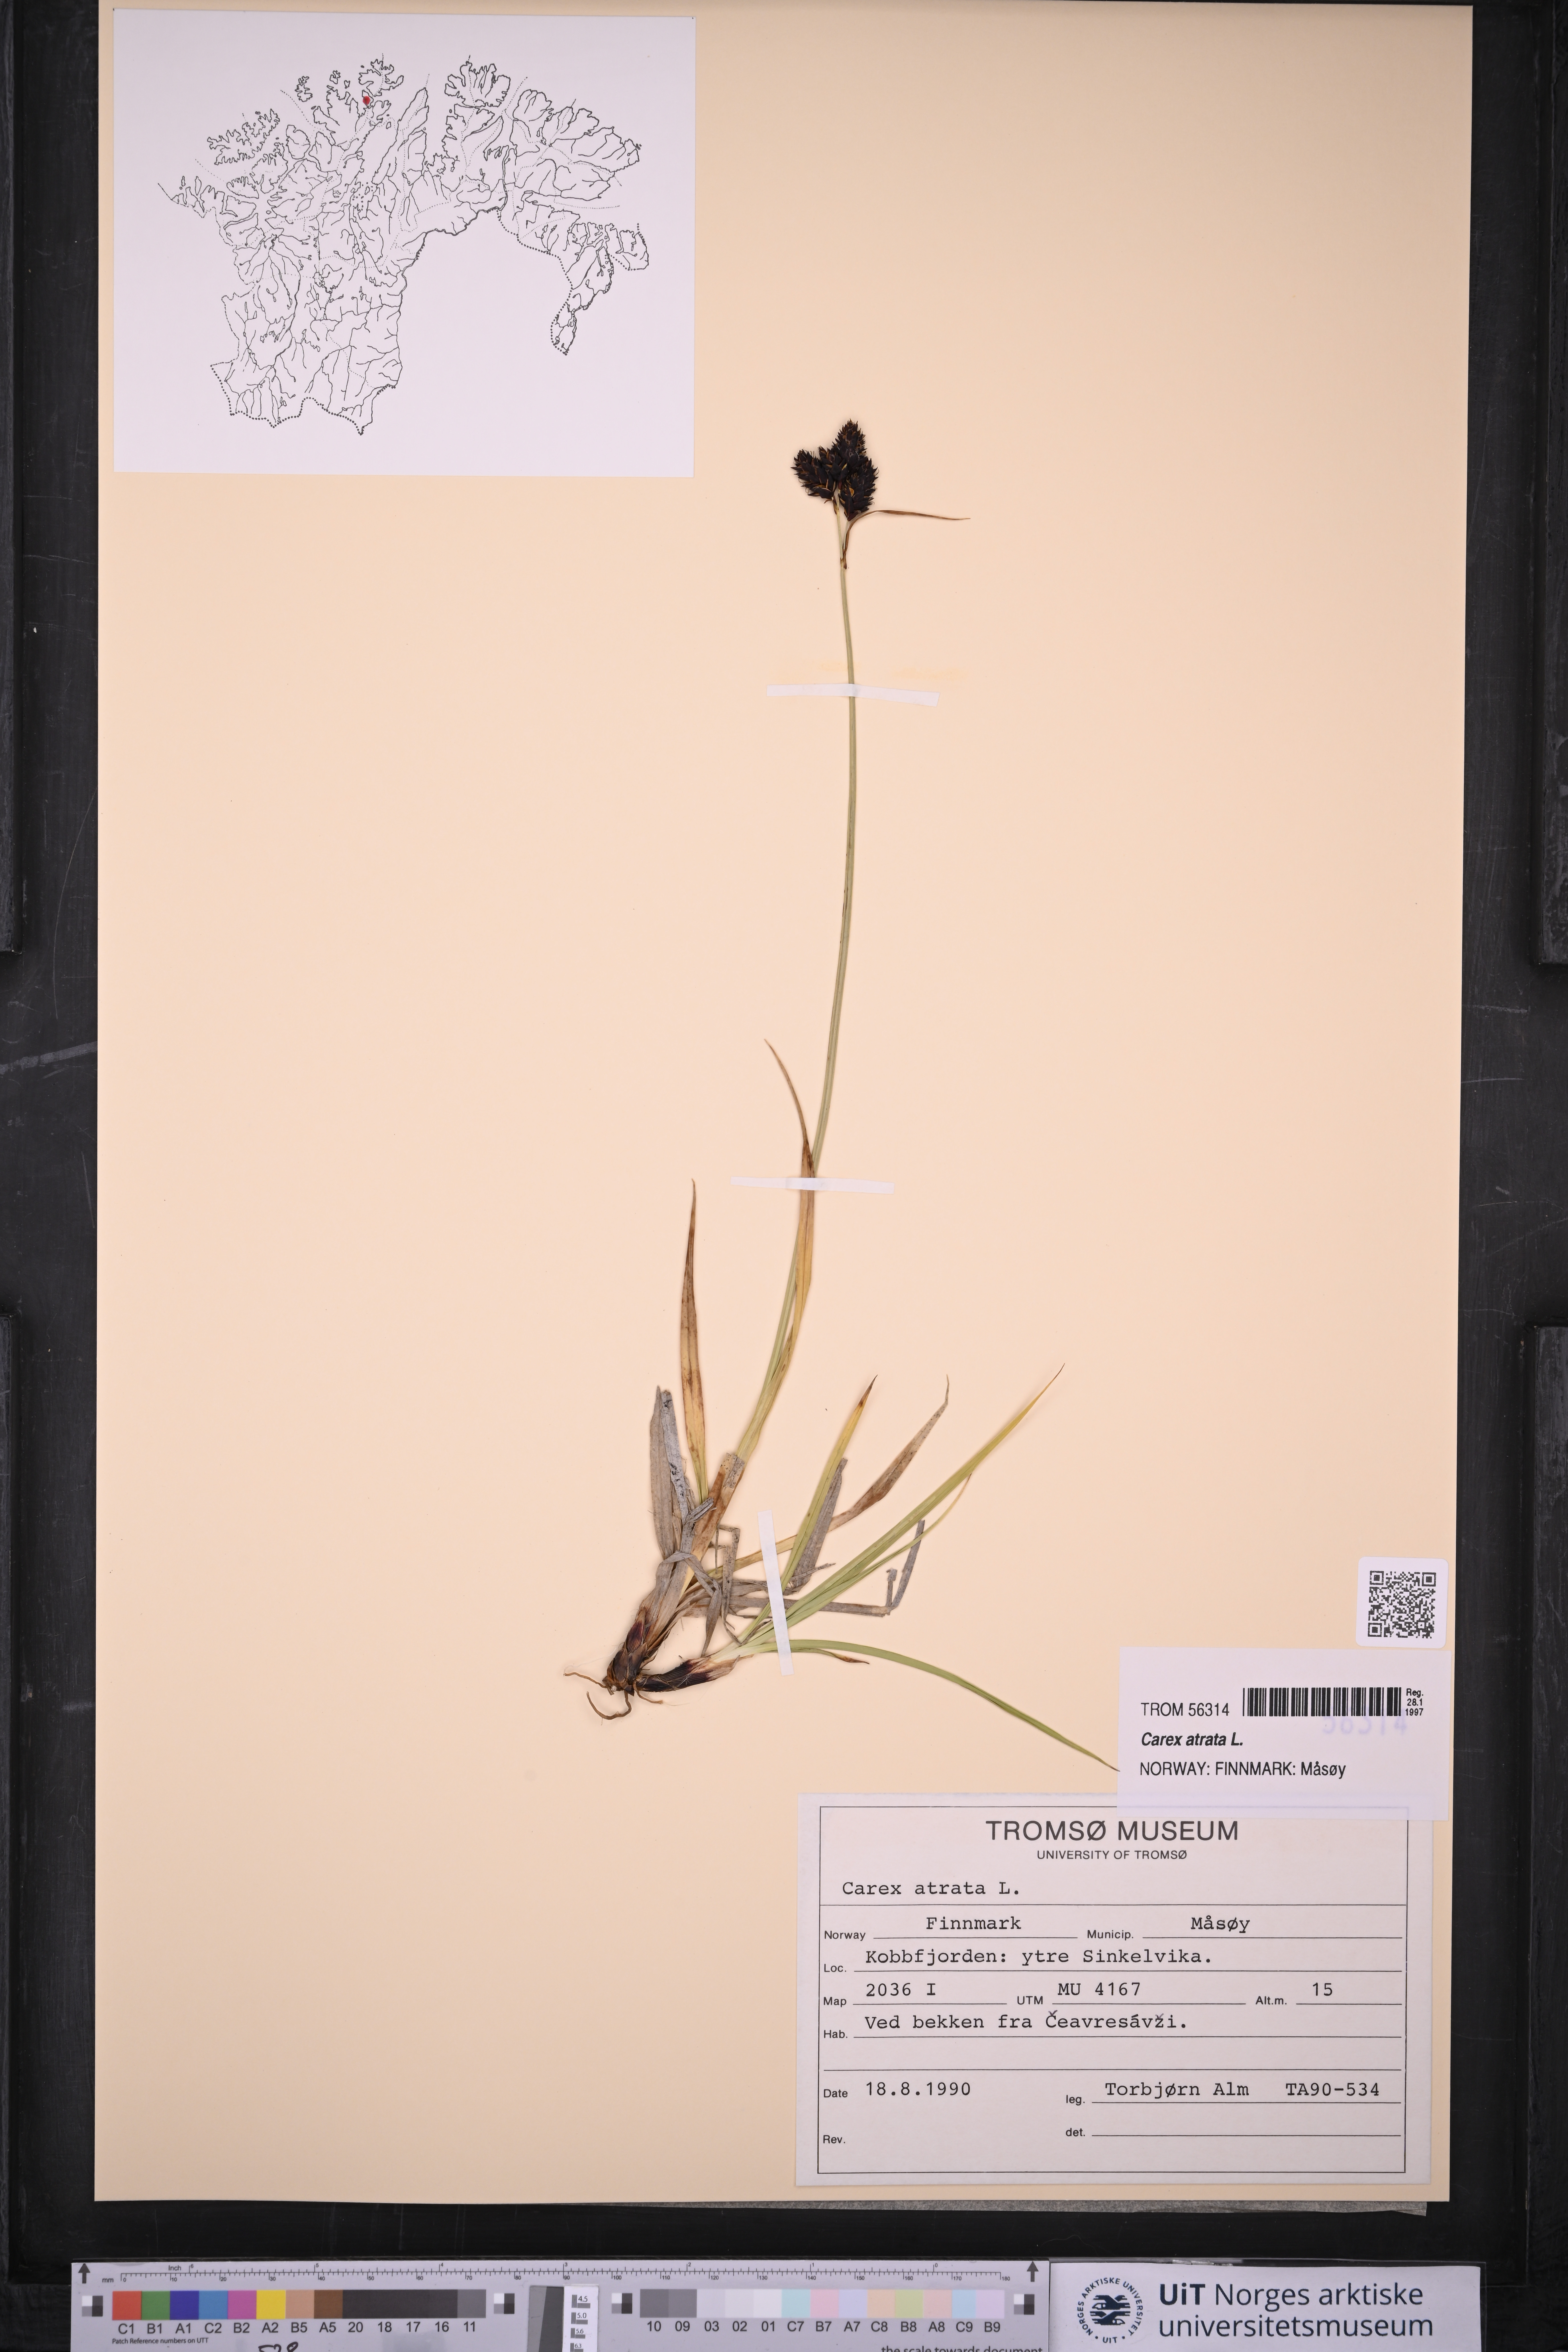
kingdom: Plantae
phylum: Tracheophyta
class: Liliopsida
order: Poales
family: Cyperaceae
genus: Carex
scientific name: Carex atrata
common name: Black alpine sedge
